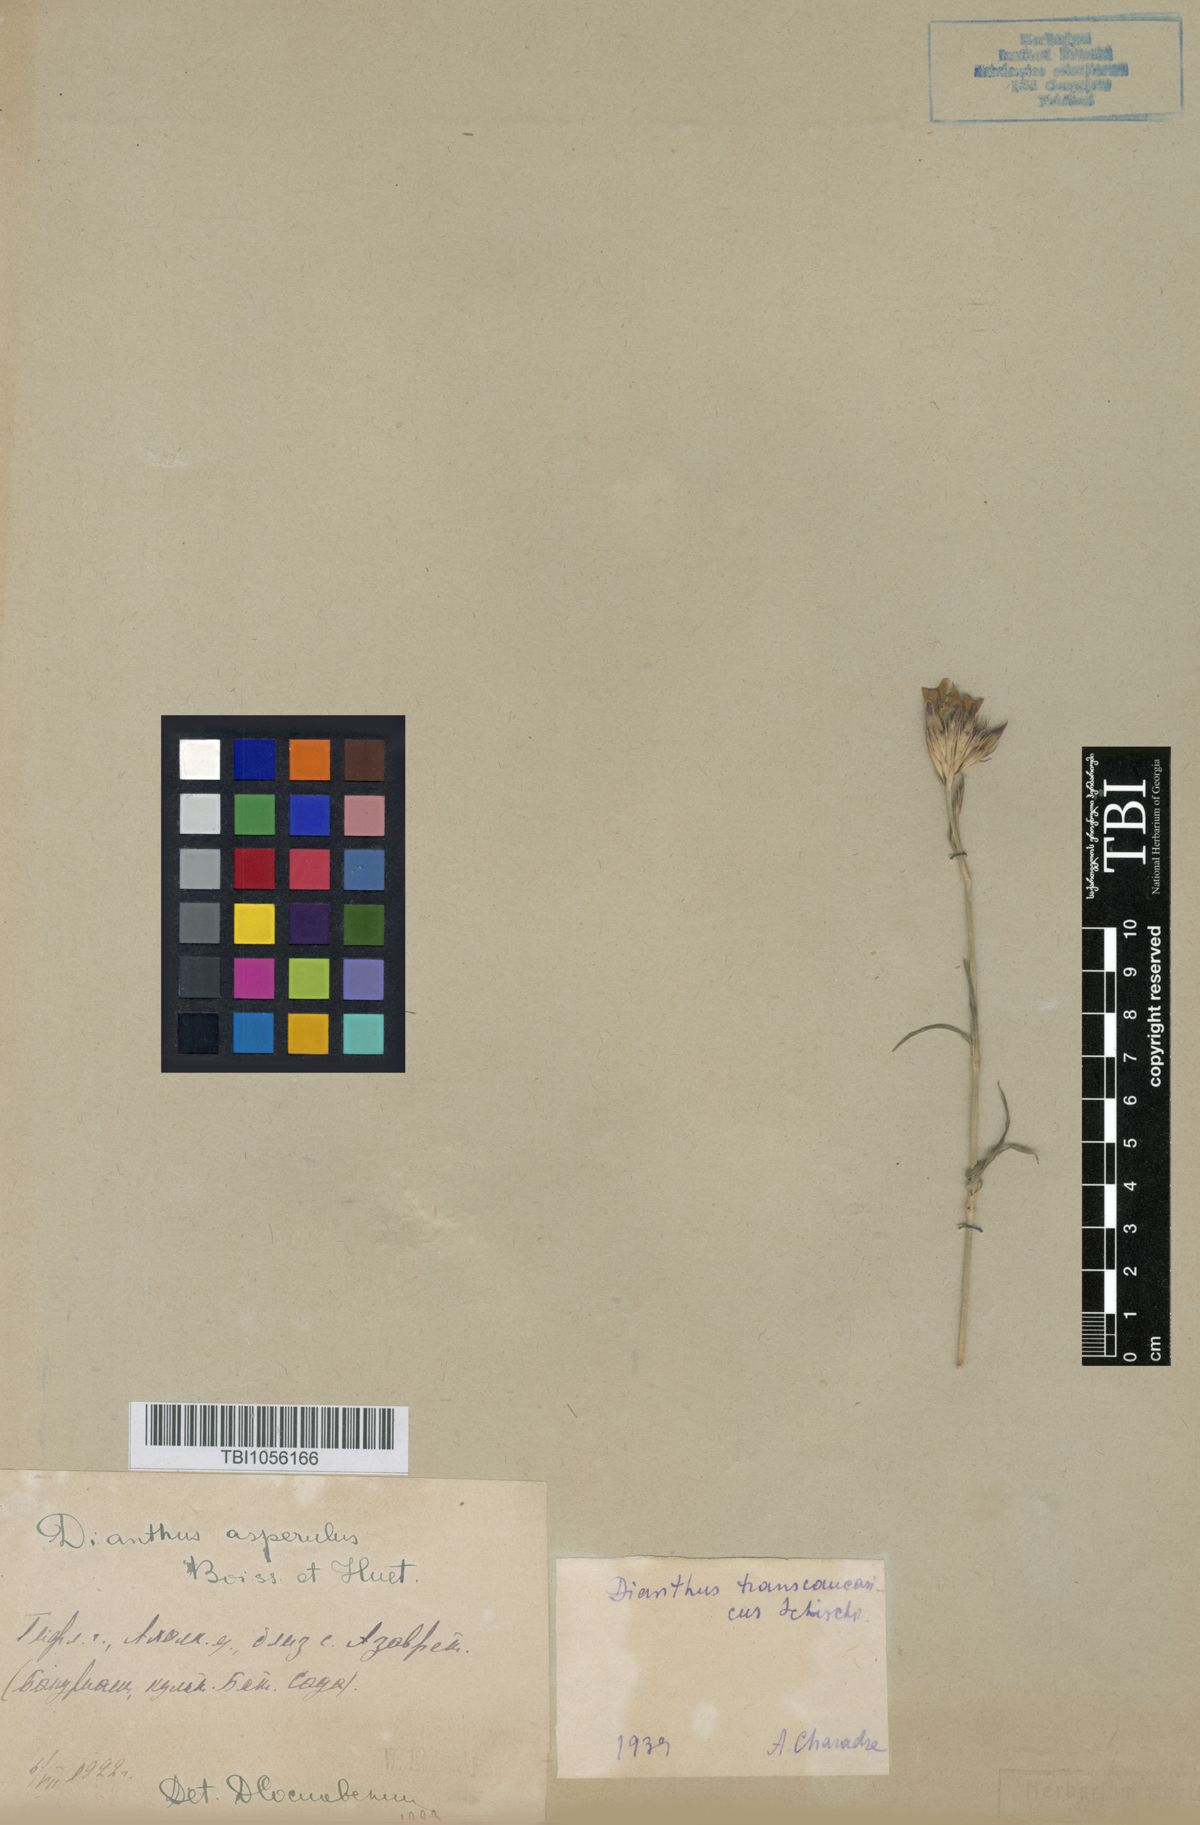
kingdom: Plantae
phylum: Tracheophyta
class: Magnoliopsida
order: Caryophyllales
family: Caryophyllaceae
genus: Dianthus
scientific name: Dianthus masmenaeus
